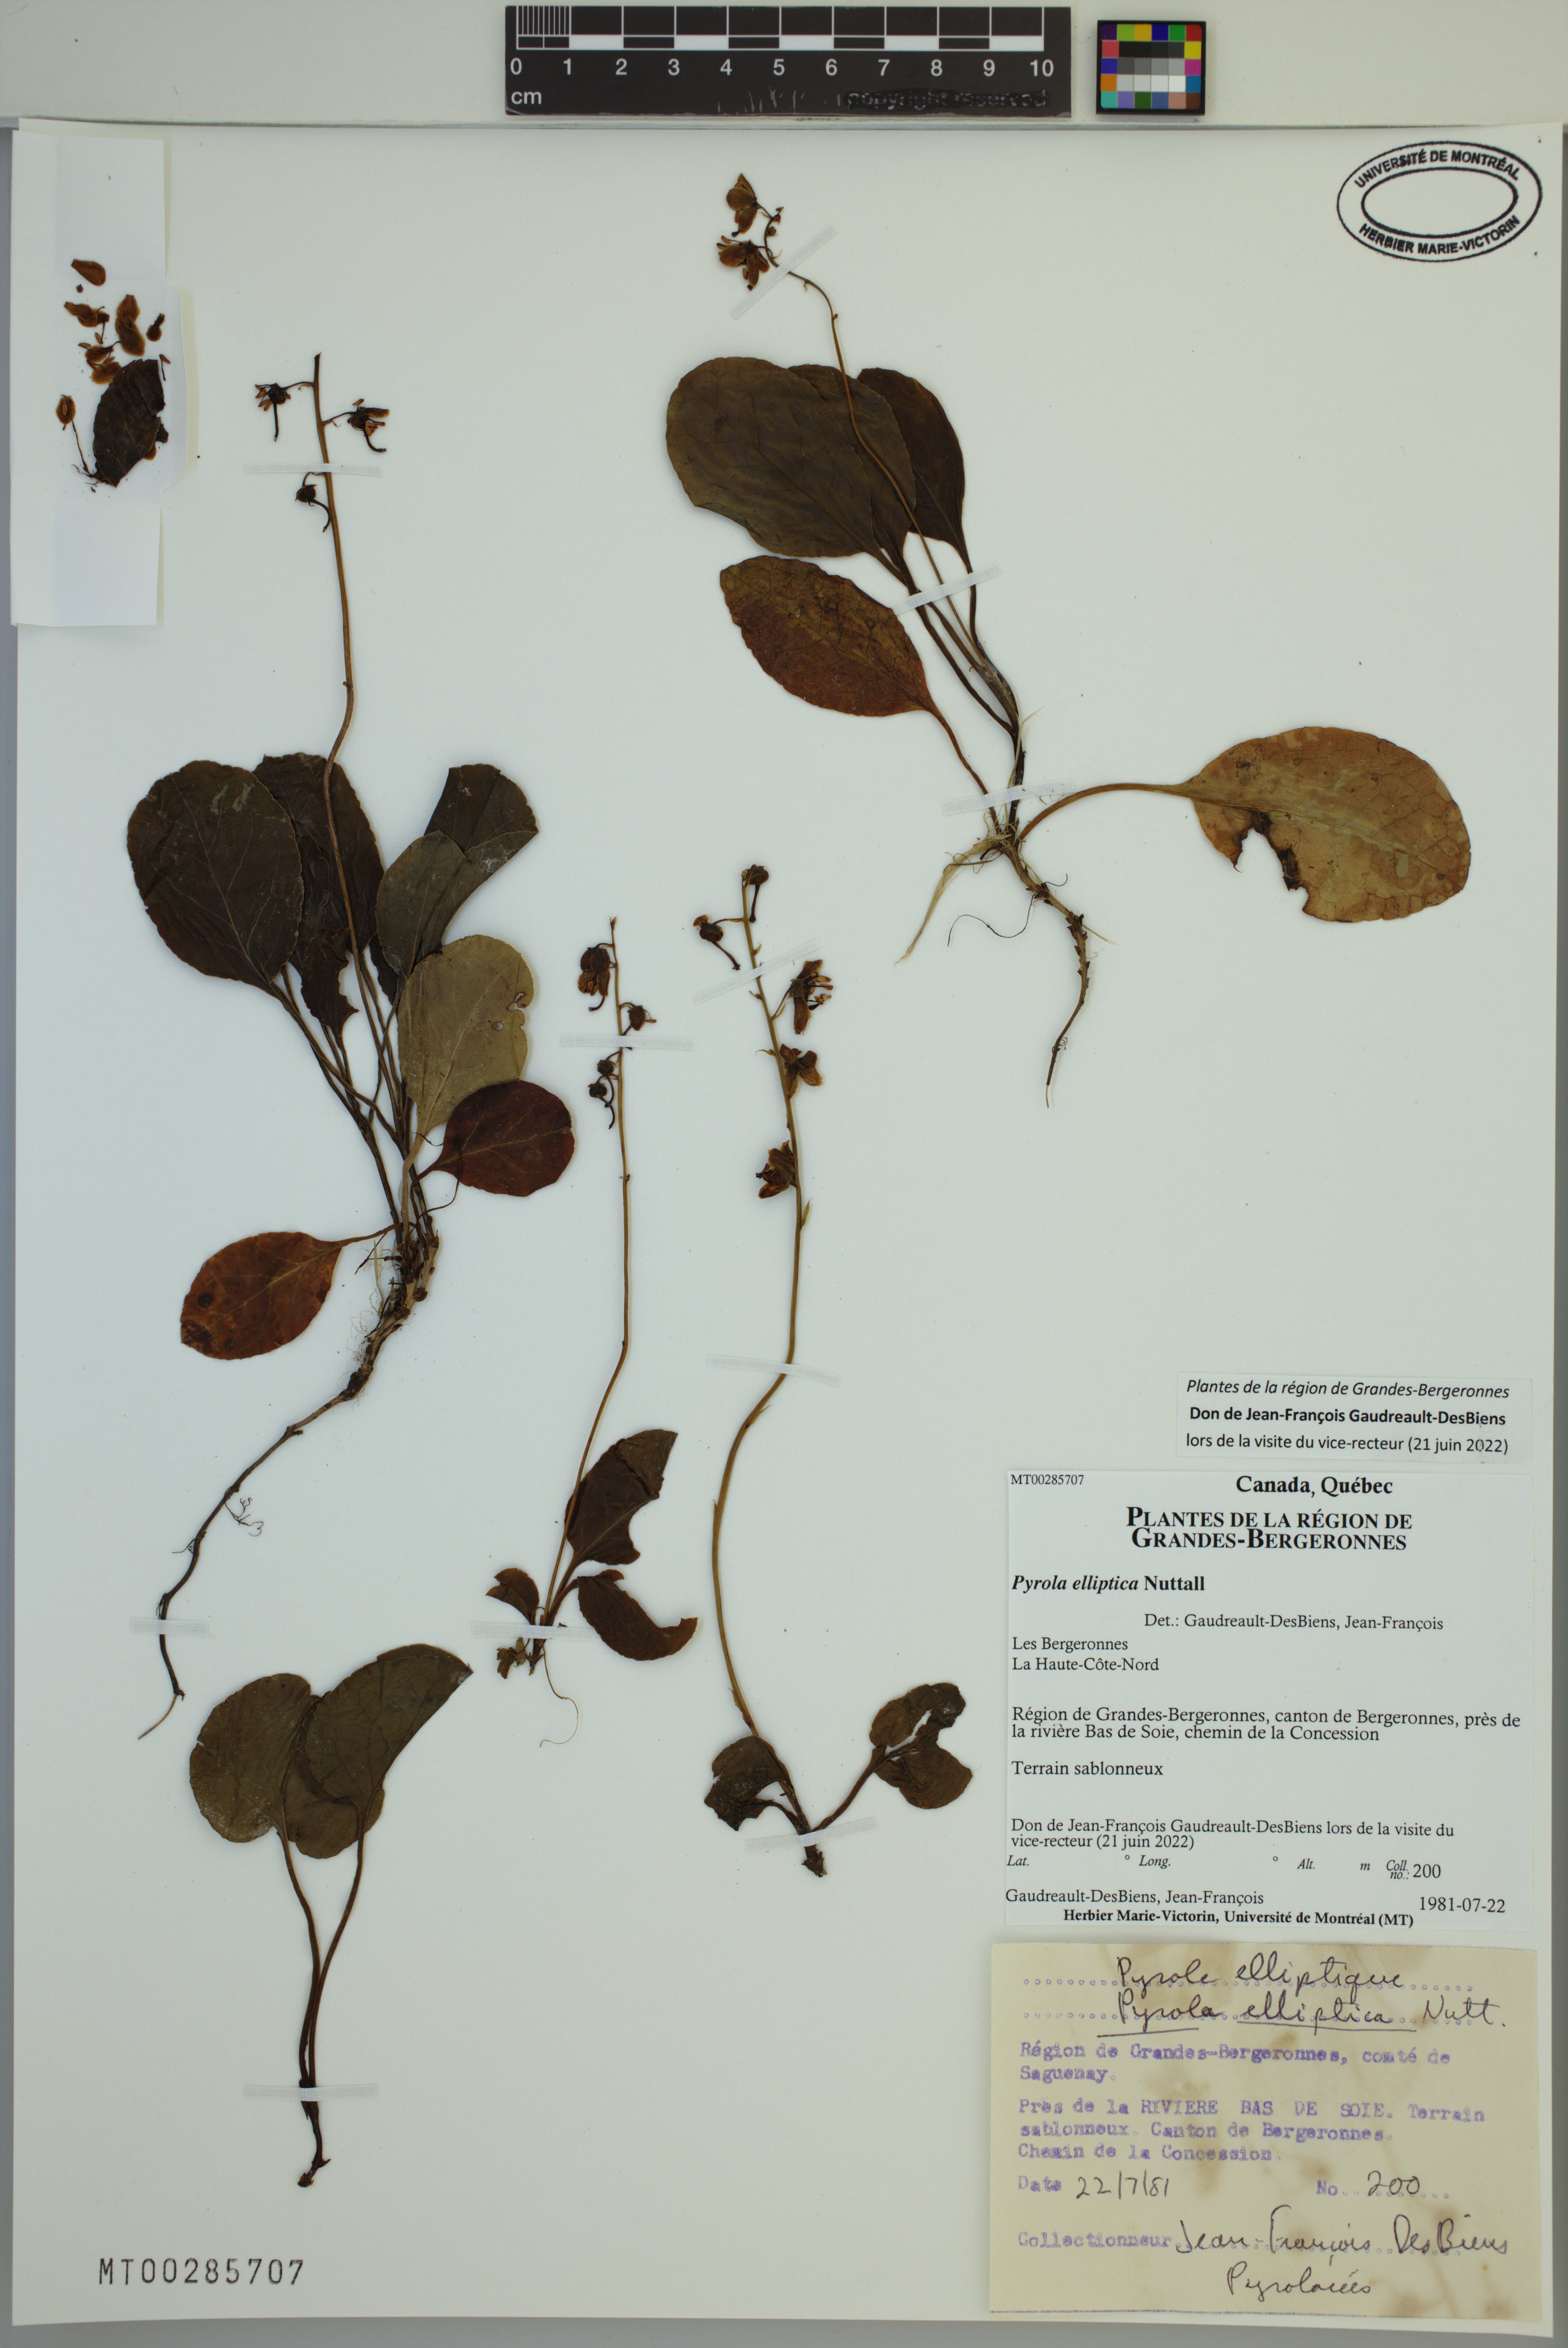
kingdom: Plantae
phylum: Tracheophyta
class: Magnoliopsida
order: Ericales
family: Ericaceae
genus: Pyrola
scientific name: Pyrola elliptica
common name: Shinleaf
